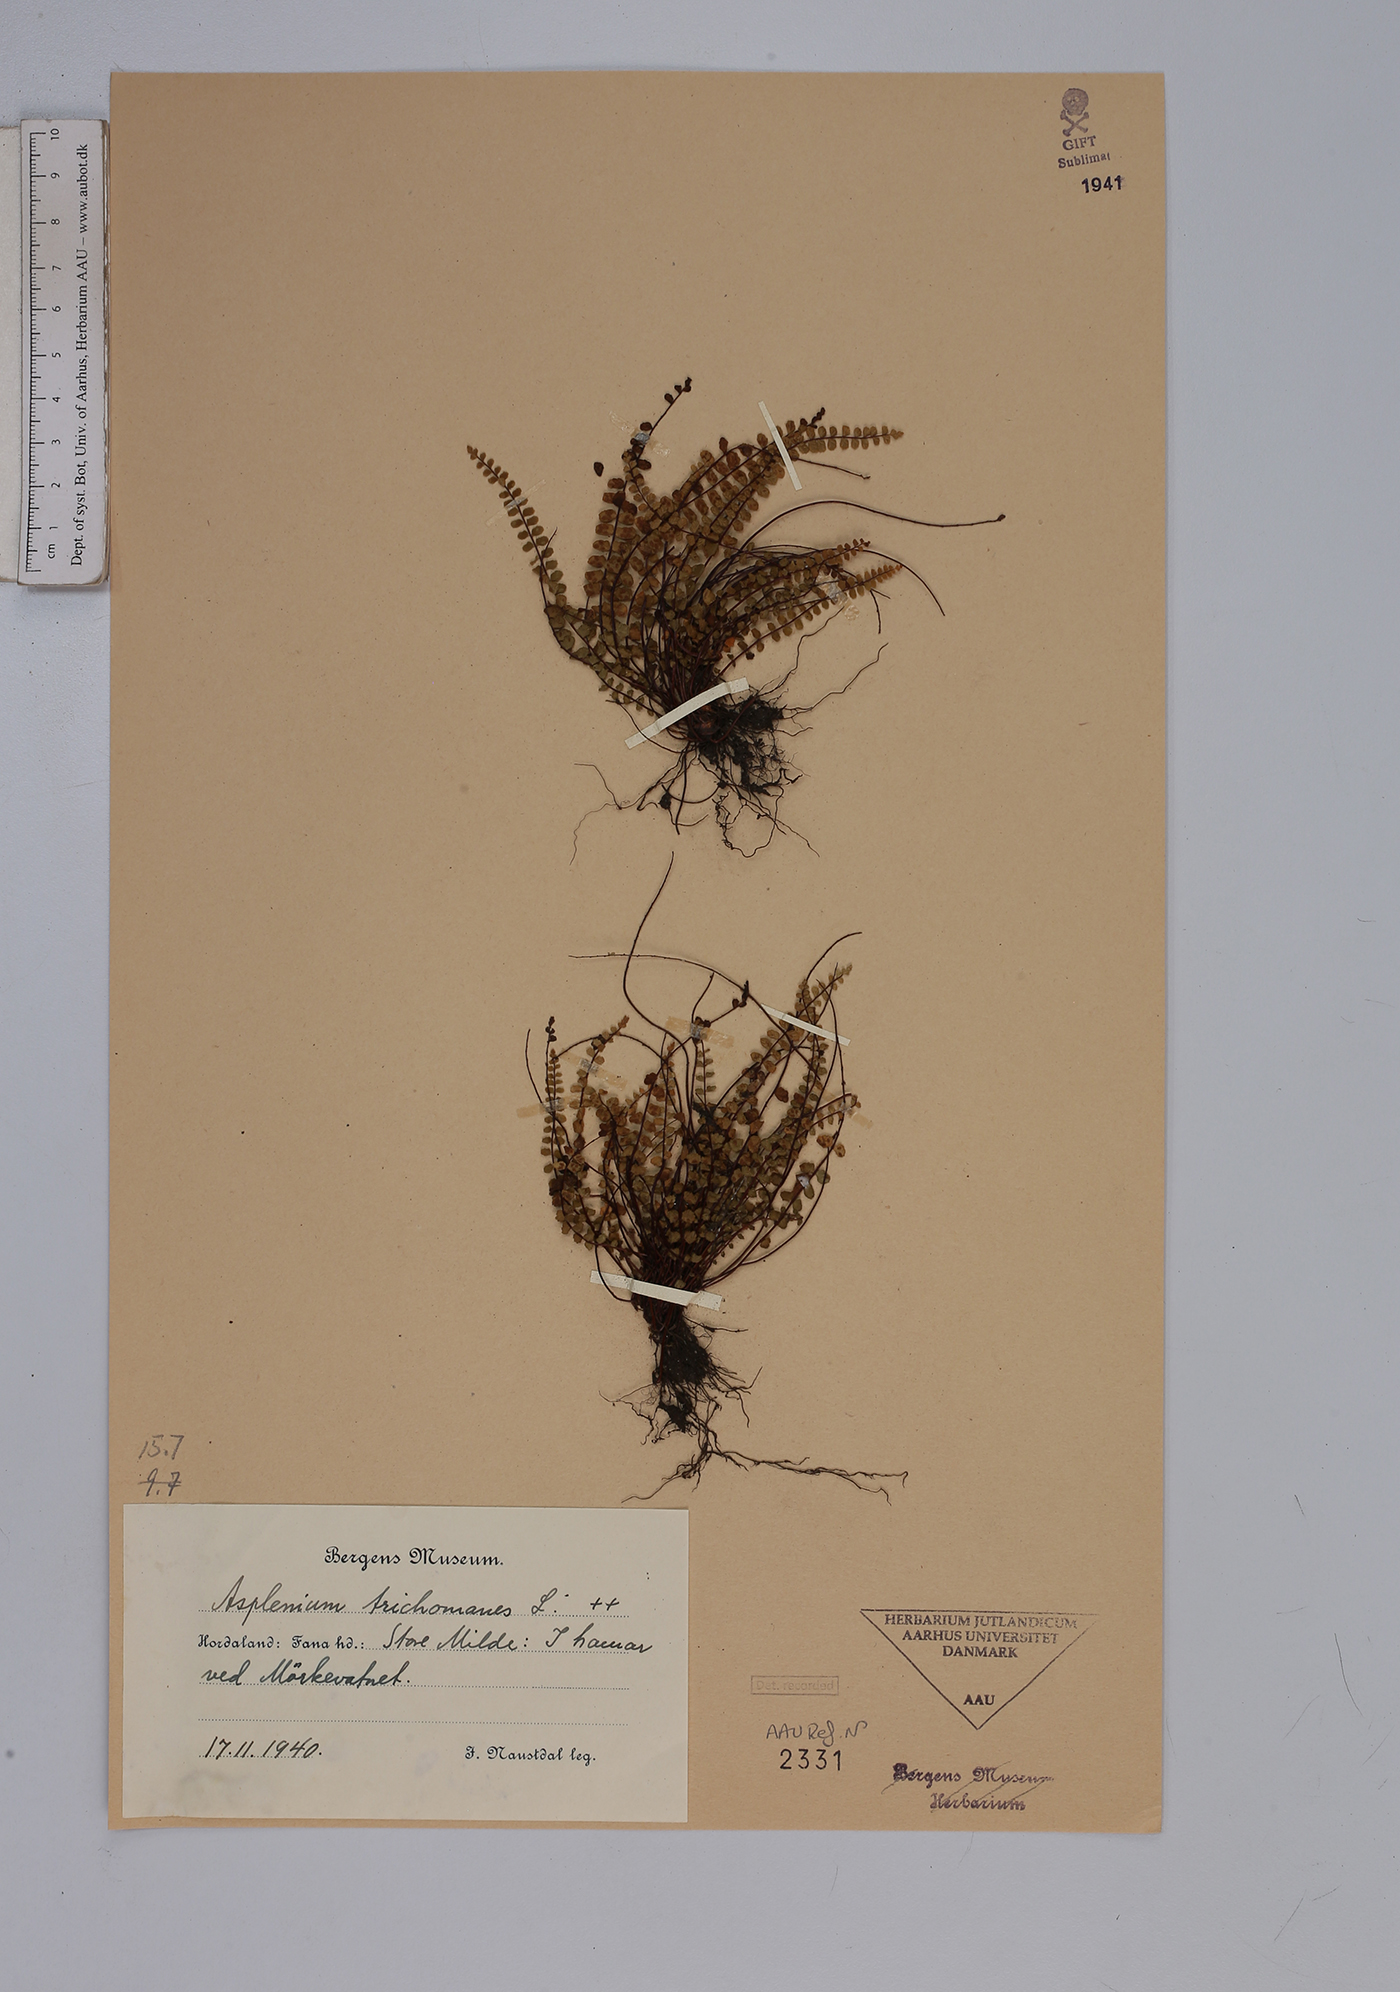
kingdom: Plantae
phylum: Tracheophyta
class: Polypodiopsida
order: Polypodiales
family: Aspleniaceae
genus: Asplenium
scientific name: Asplenium trichomanes
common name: Maidenhair spleenwort
